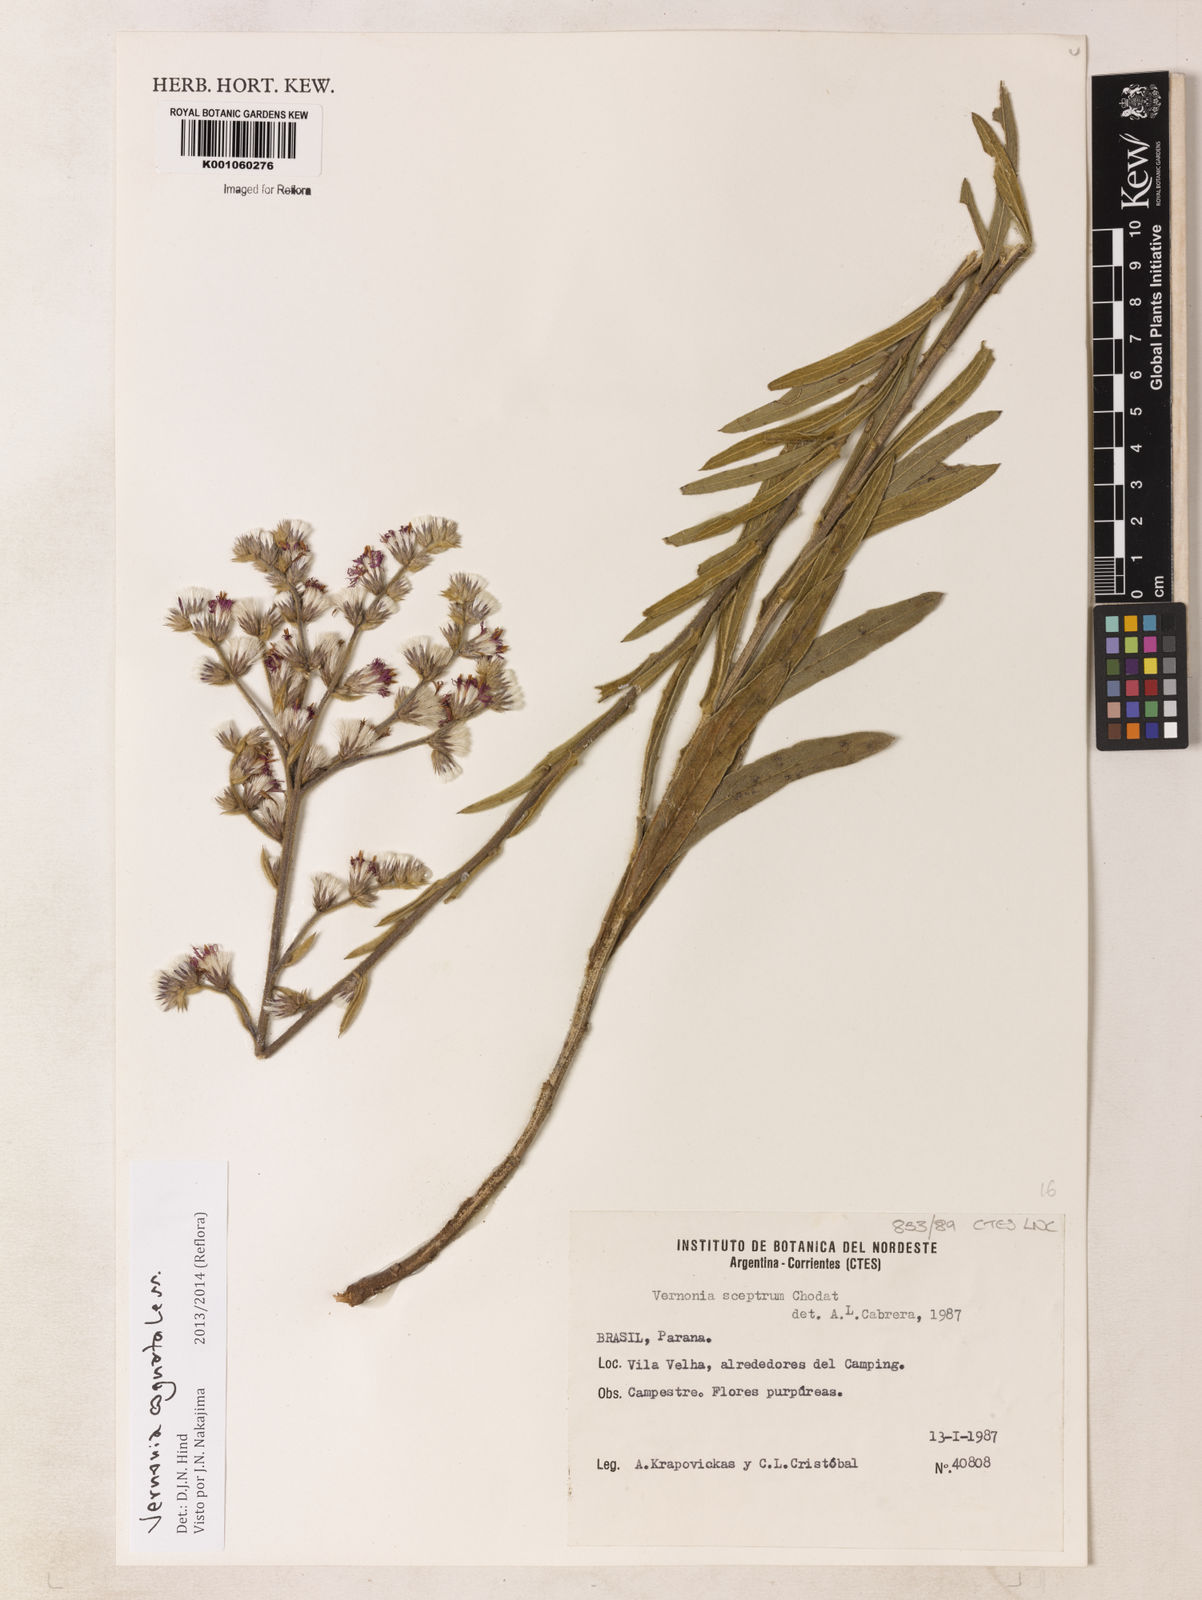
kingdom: Plantae
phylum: Tracheophyta
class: Magnoliopsida
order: Asterales
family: Asteraceae
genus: Chrysolaena
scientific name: Chrysolaena cognata
